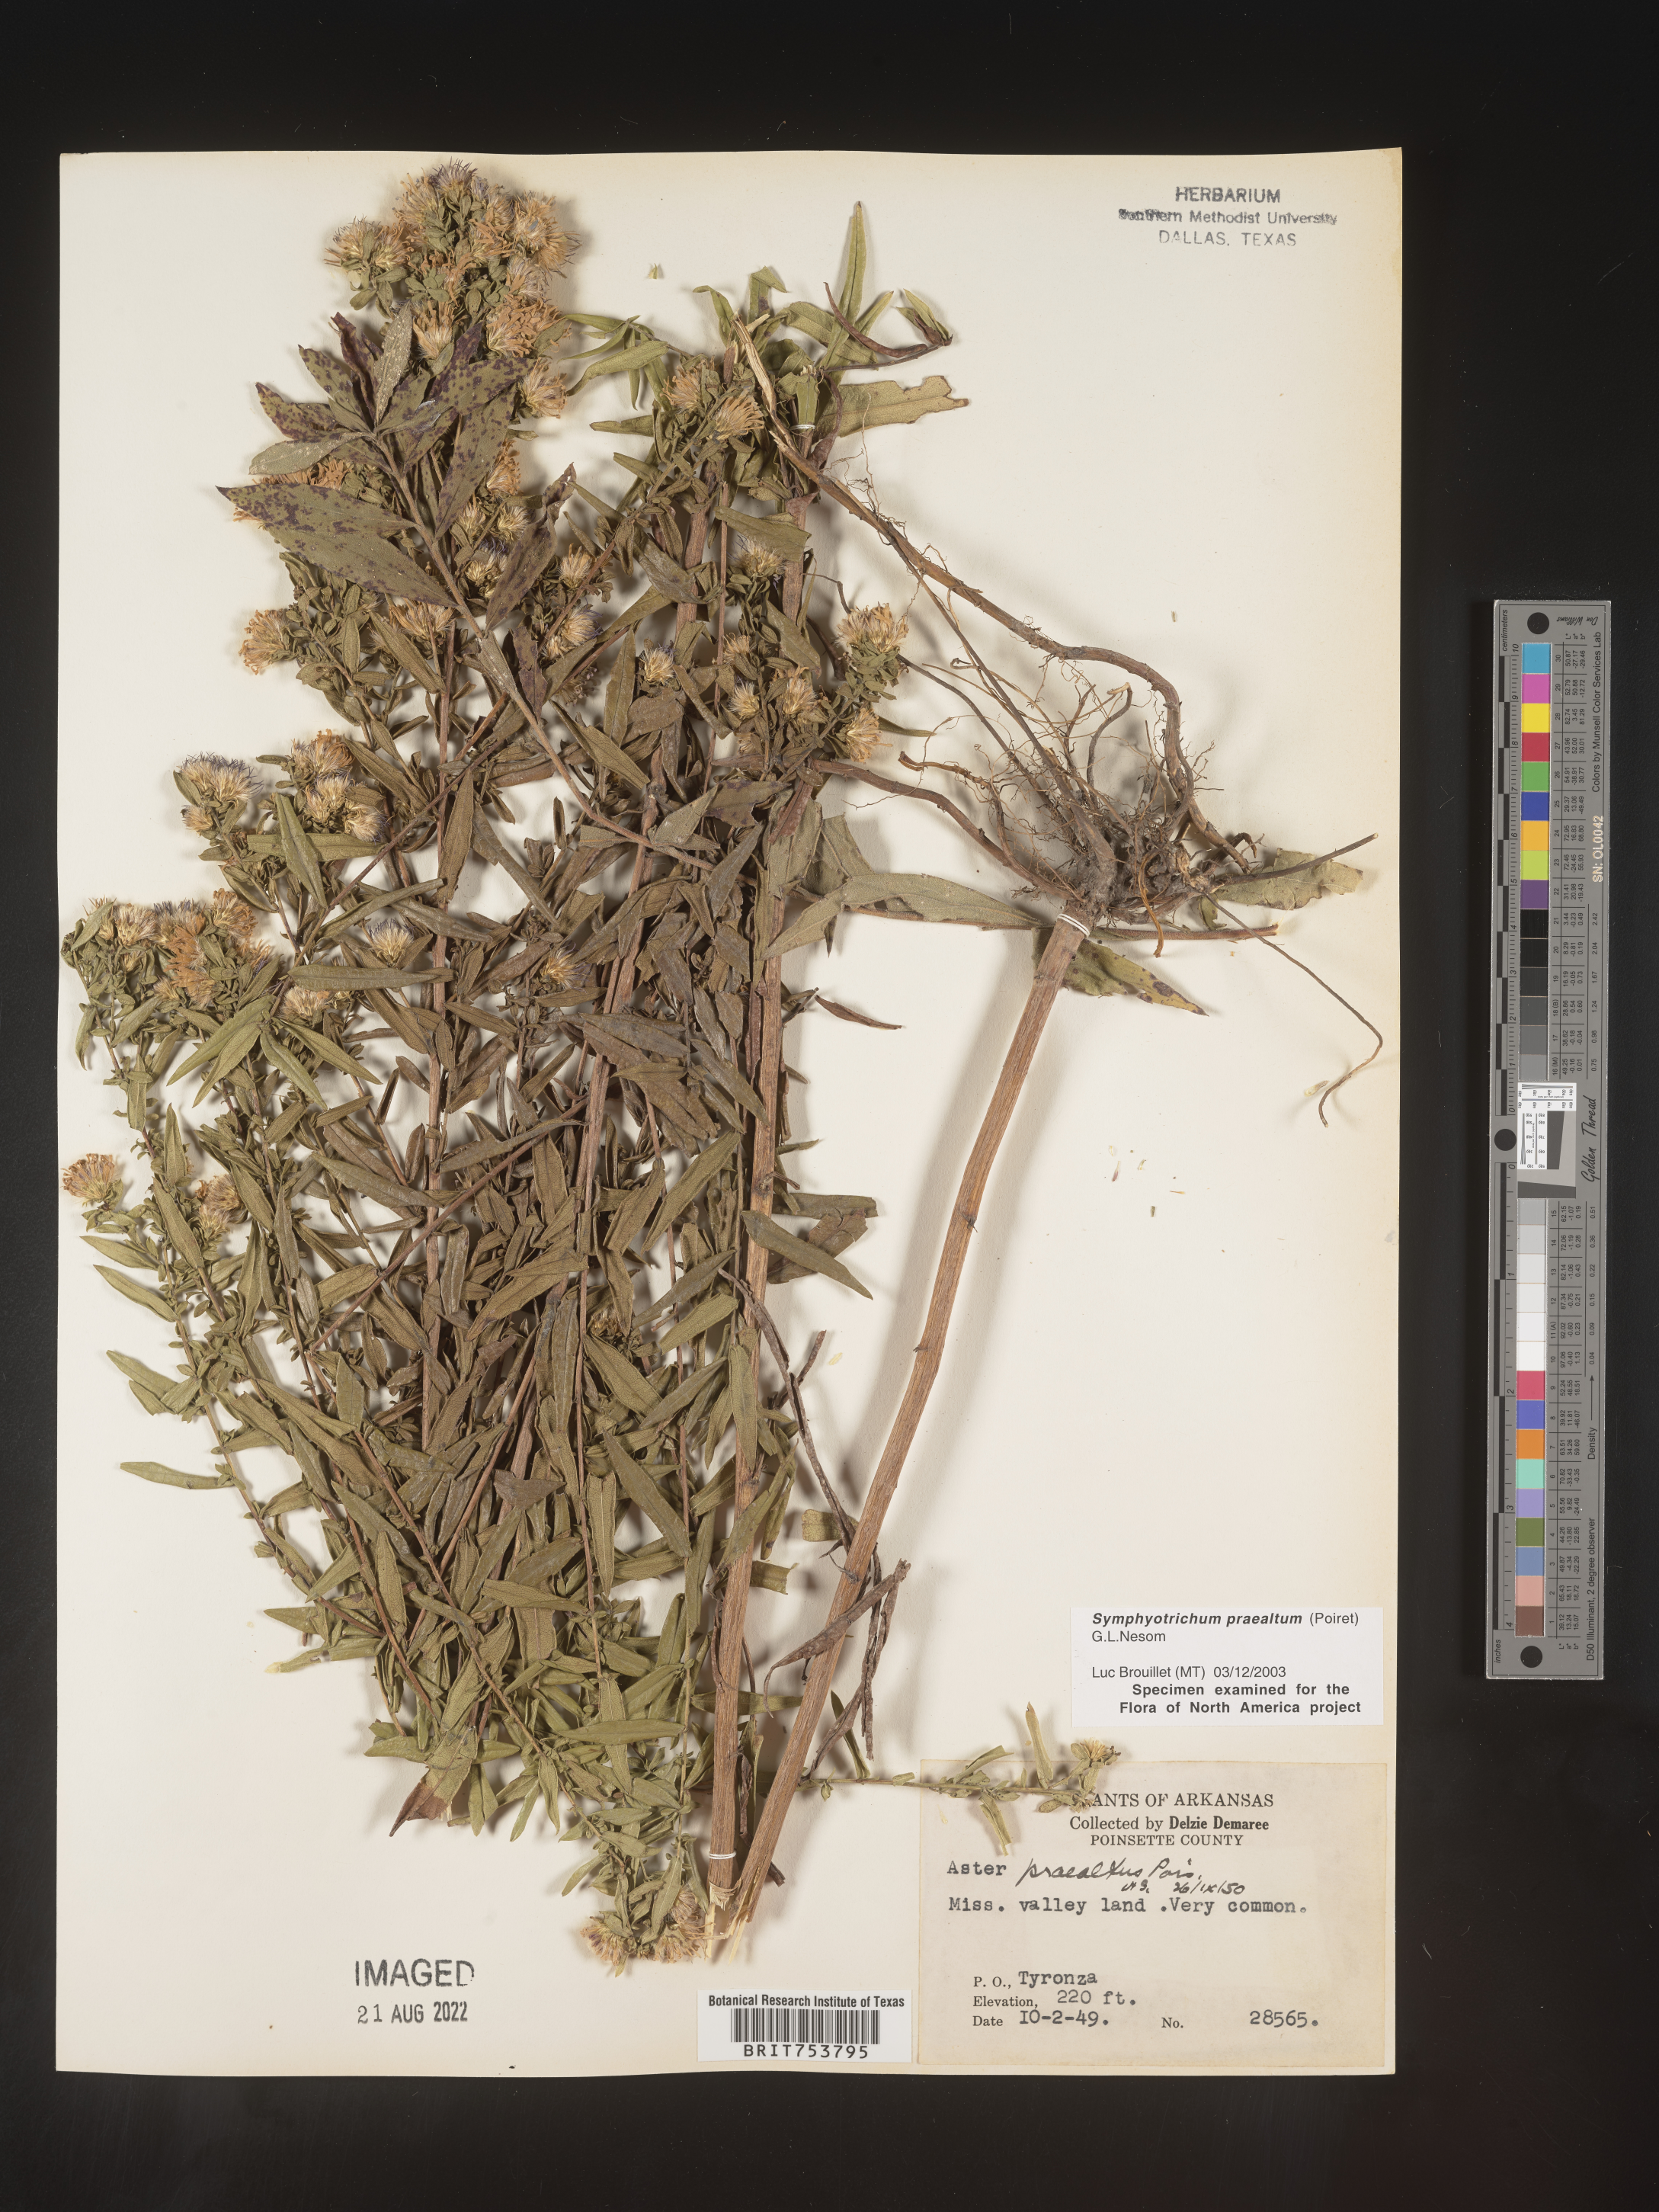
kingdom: Plantae
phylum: Tracheophyta
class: Magnoliopsida
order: Asterales
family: Asteraceae
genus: Symphyotrichum
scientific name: Symphyotrichum praealtum
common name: Willow aster
